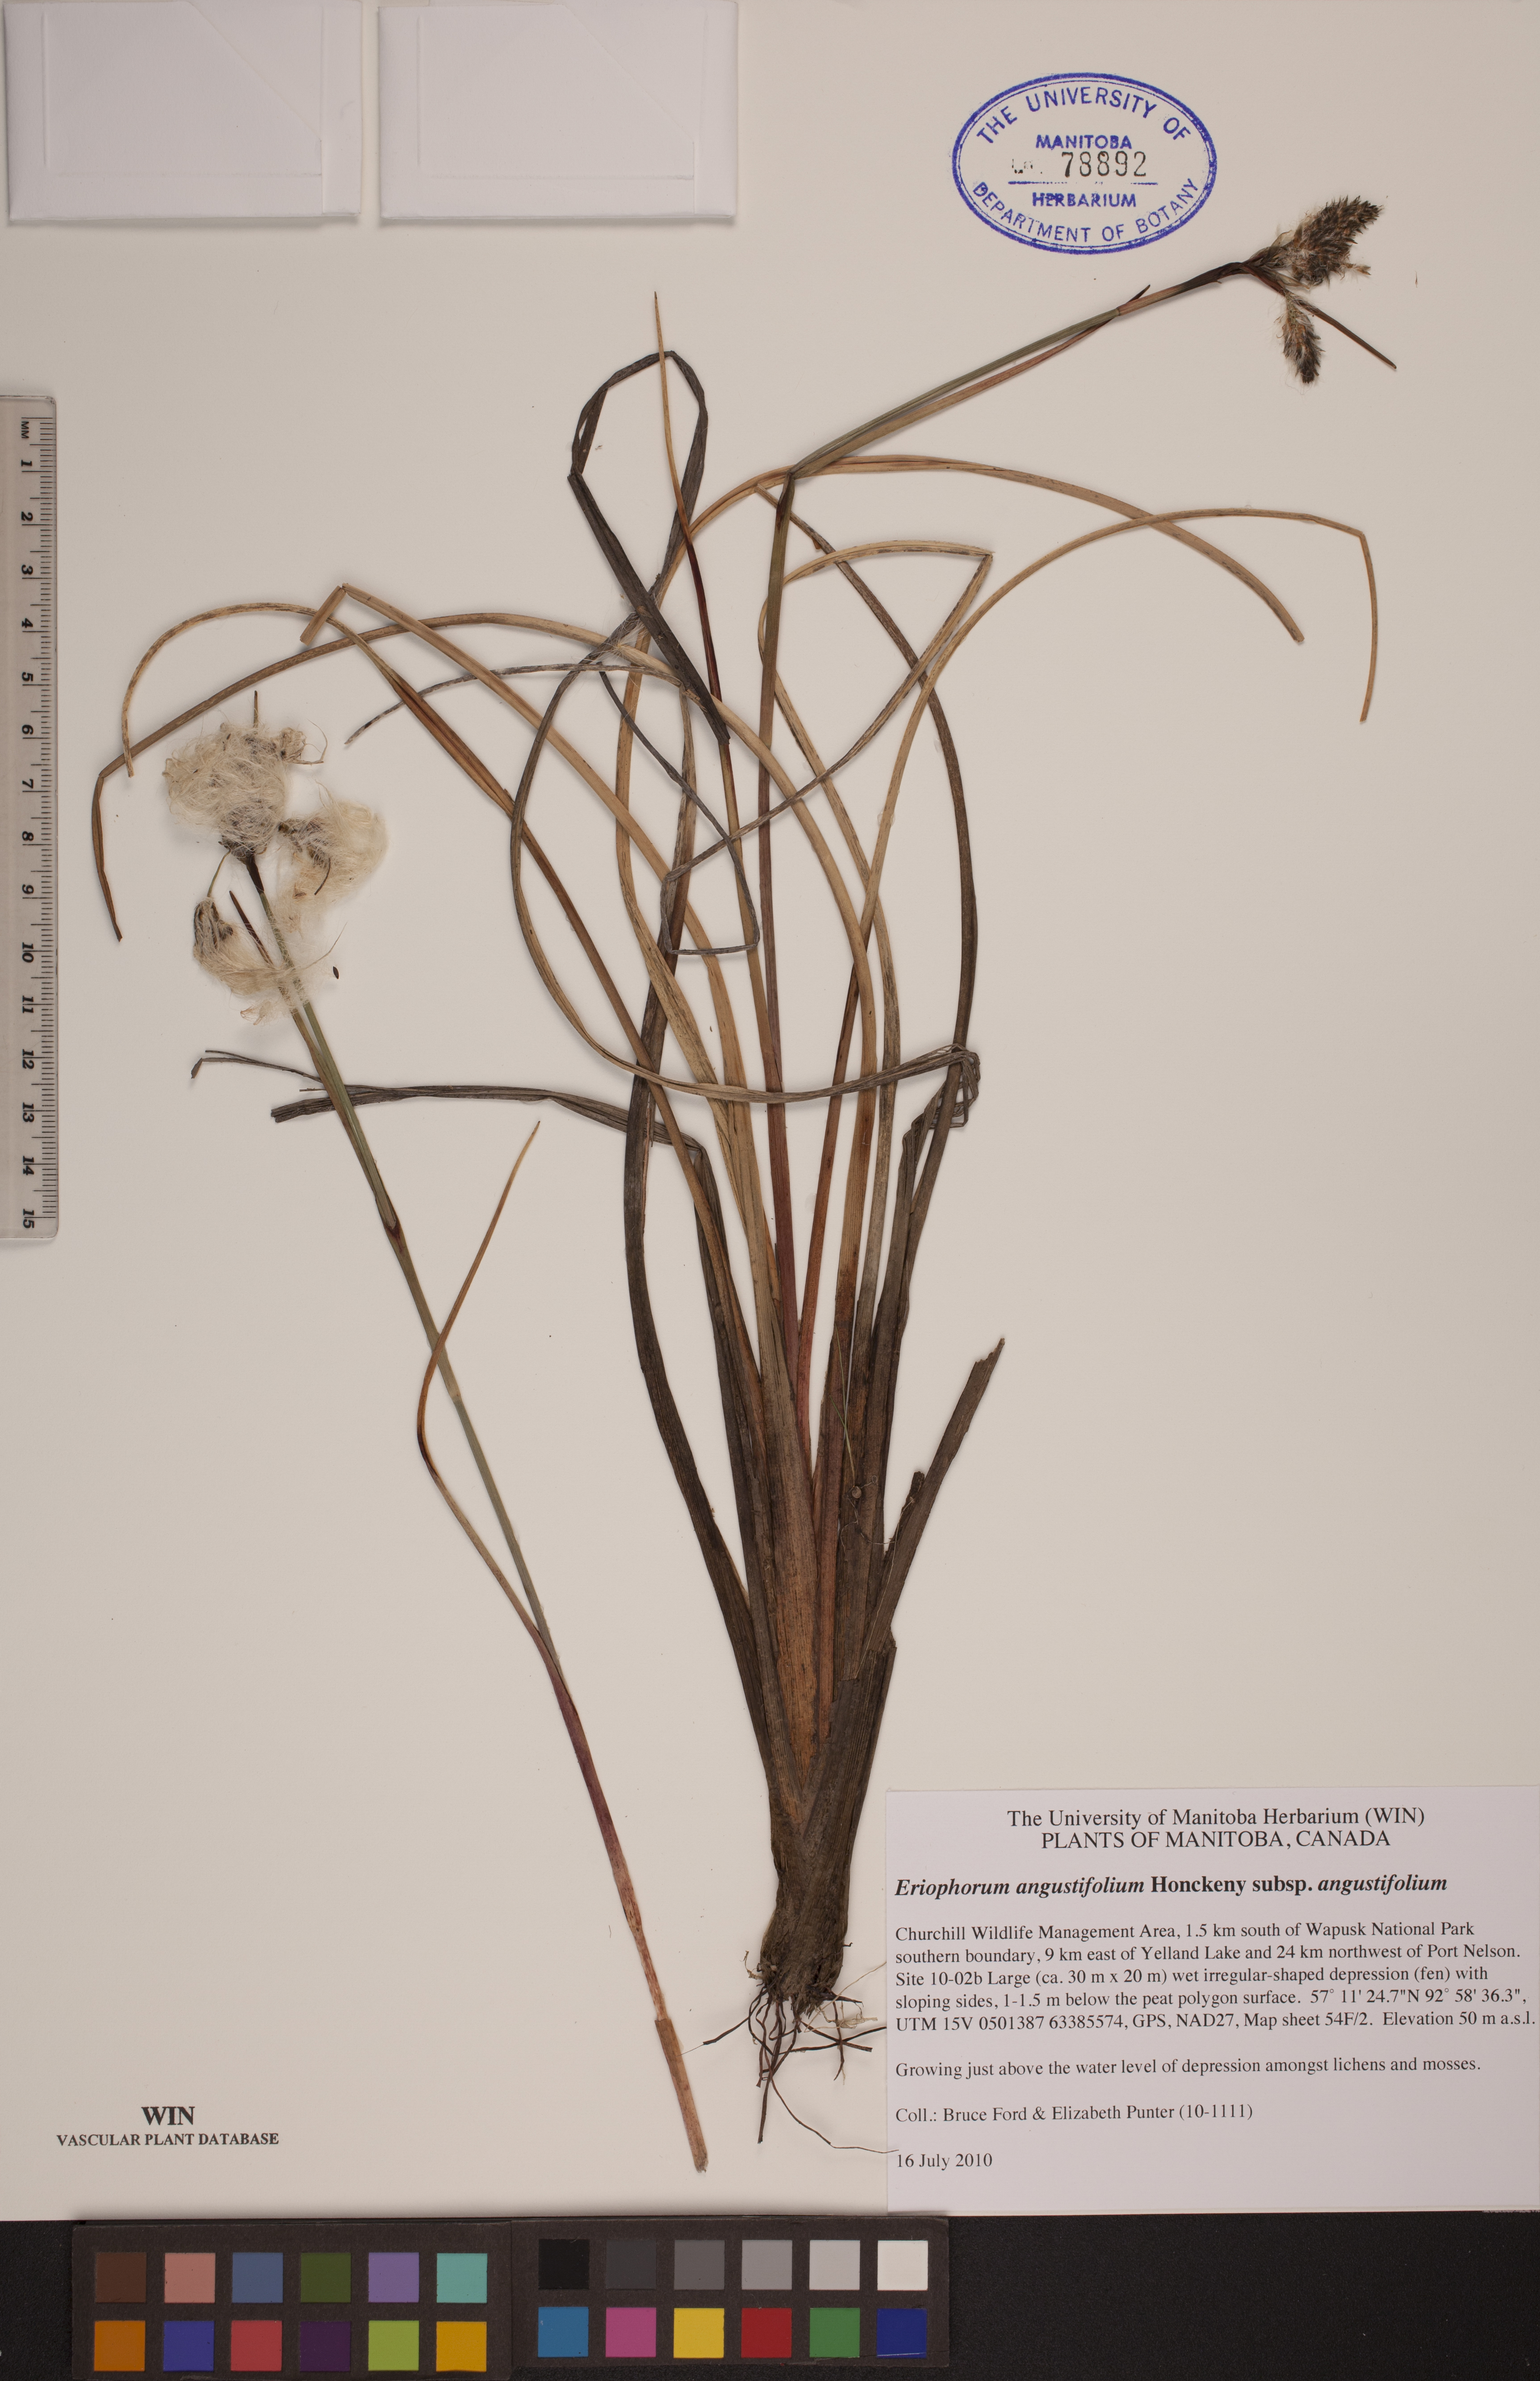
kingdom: Plantae
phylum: Tracheophyta
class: Liliopsida
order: Poales
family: Cyperaceae
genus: Eriophorum
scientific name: Eriophorum angustifolium
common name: Common cottongrass
